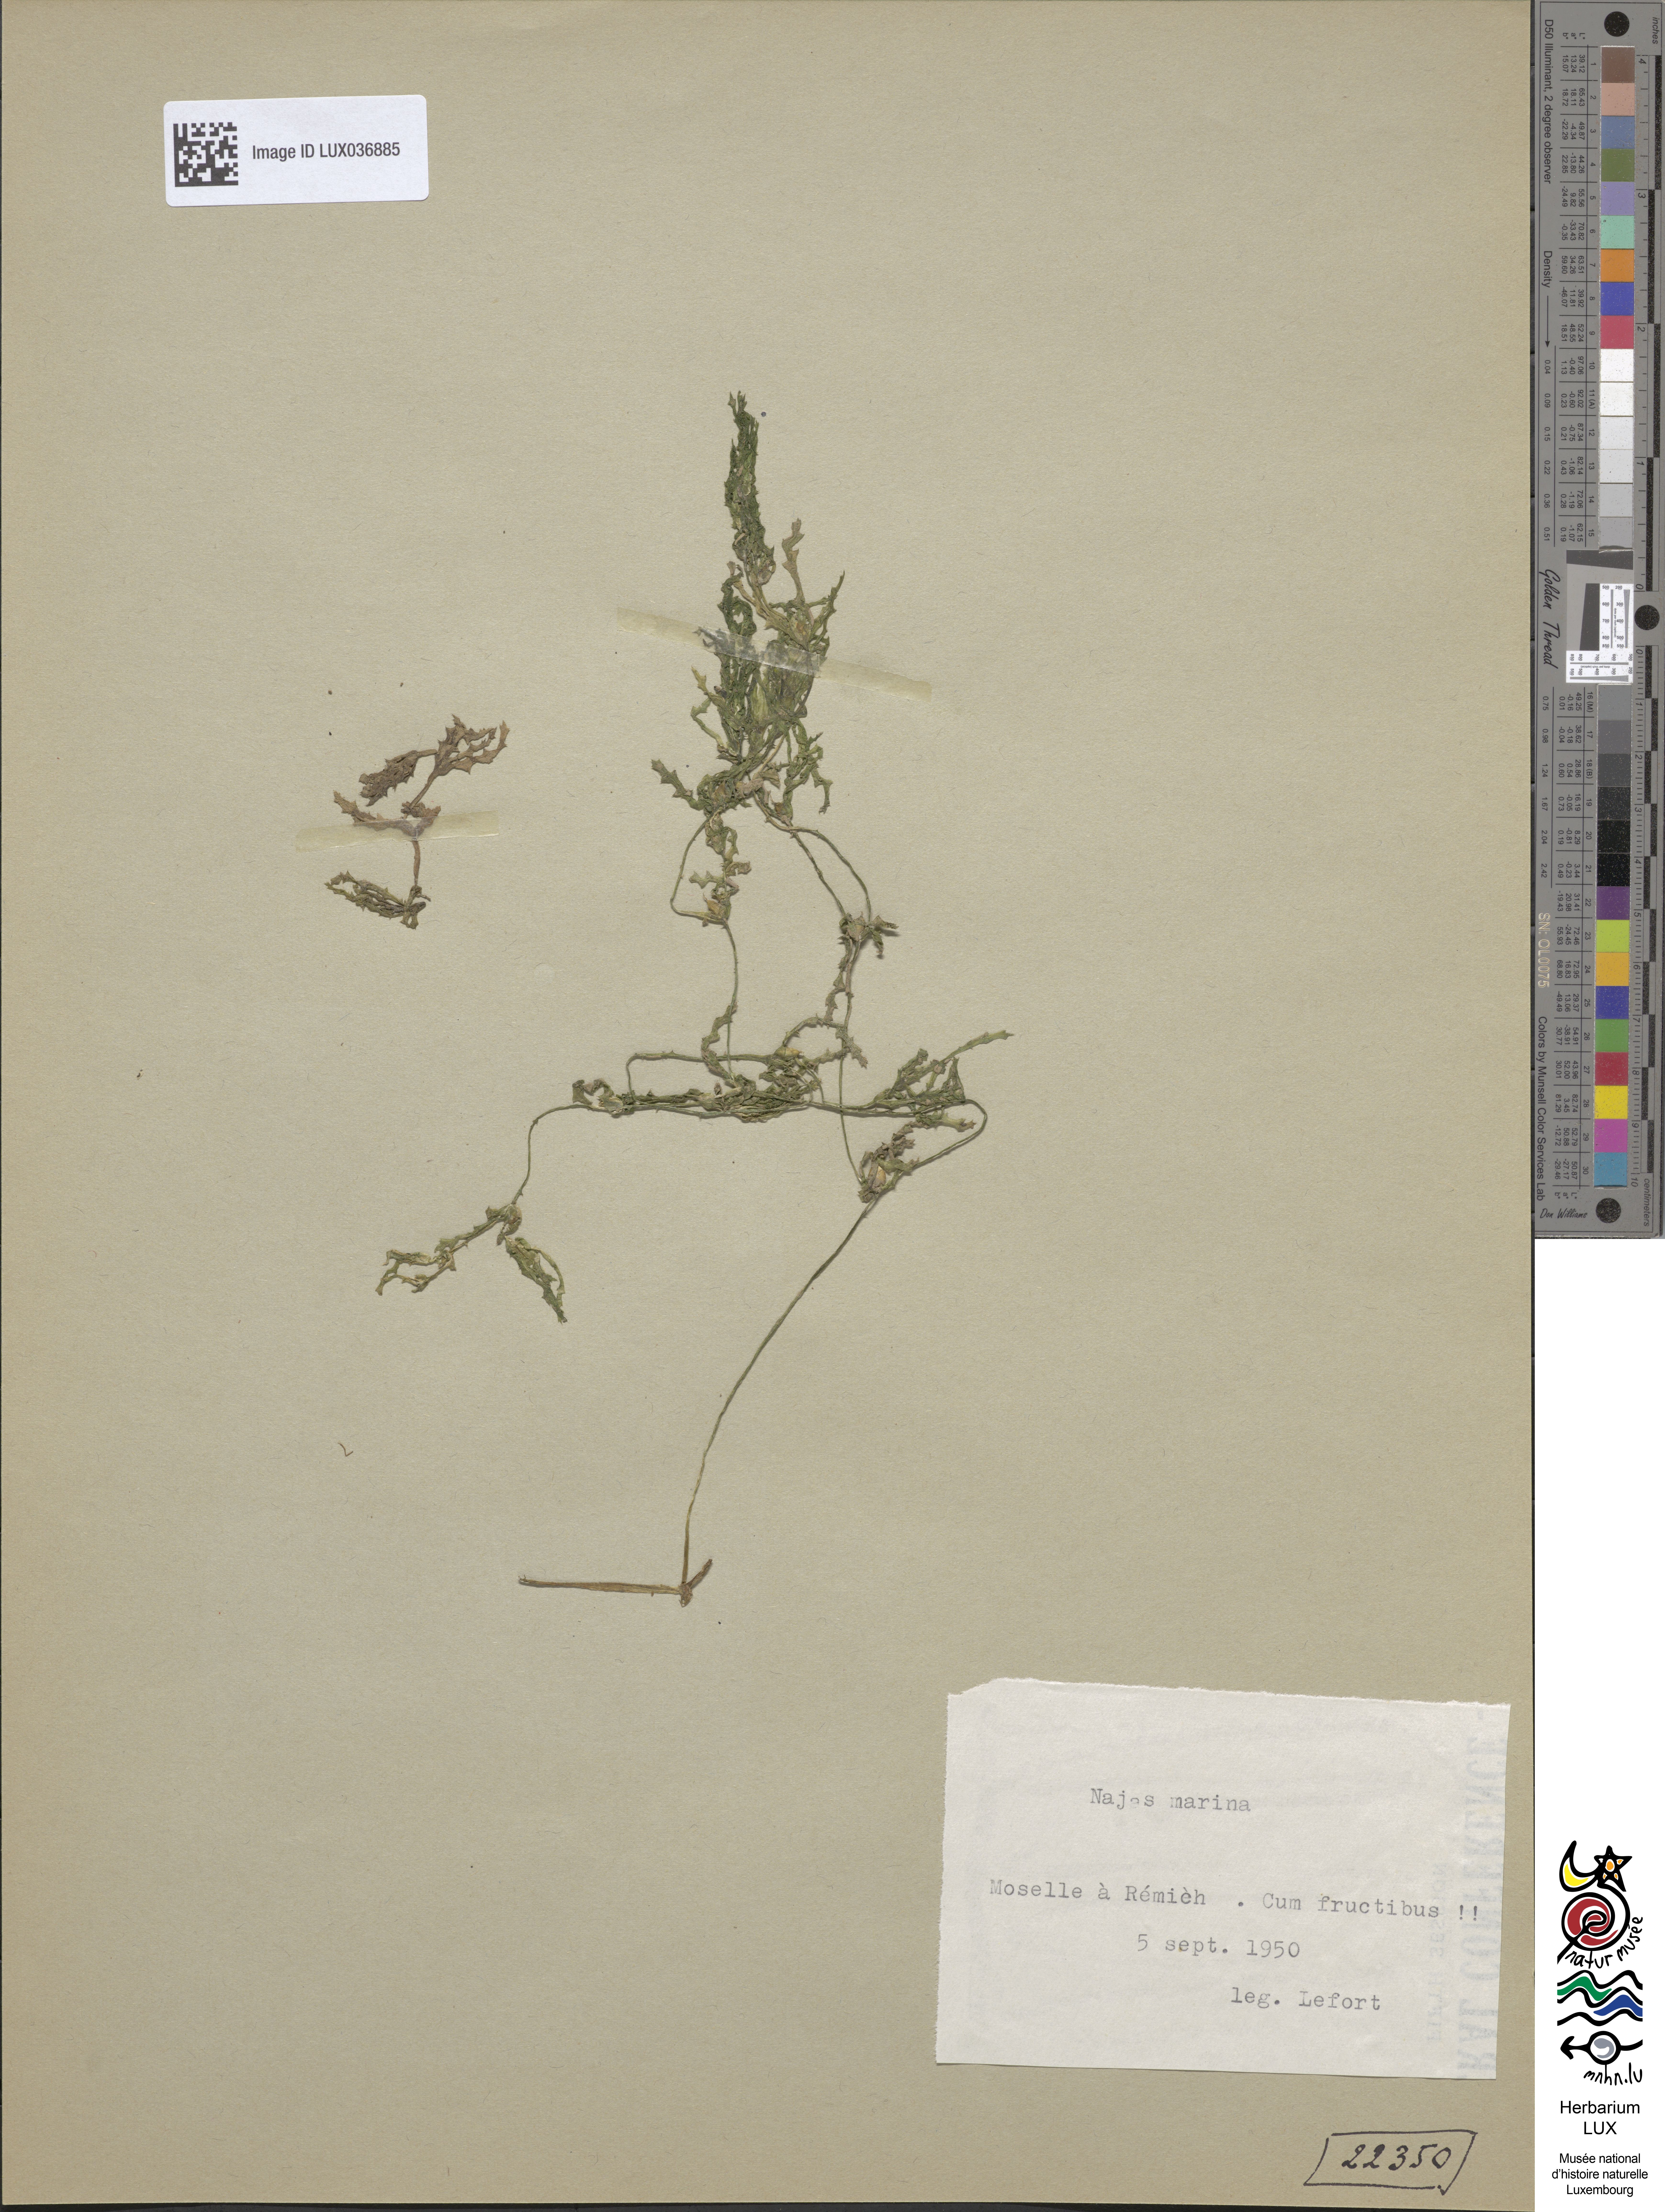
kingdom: Plantae
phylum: Tracheophyta
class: Liliopsida
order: Alismatales
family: Hydrocharitaceae
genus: Najas
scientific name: Najas marina
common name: Holly-leaved naiad
